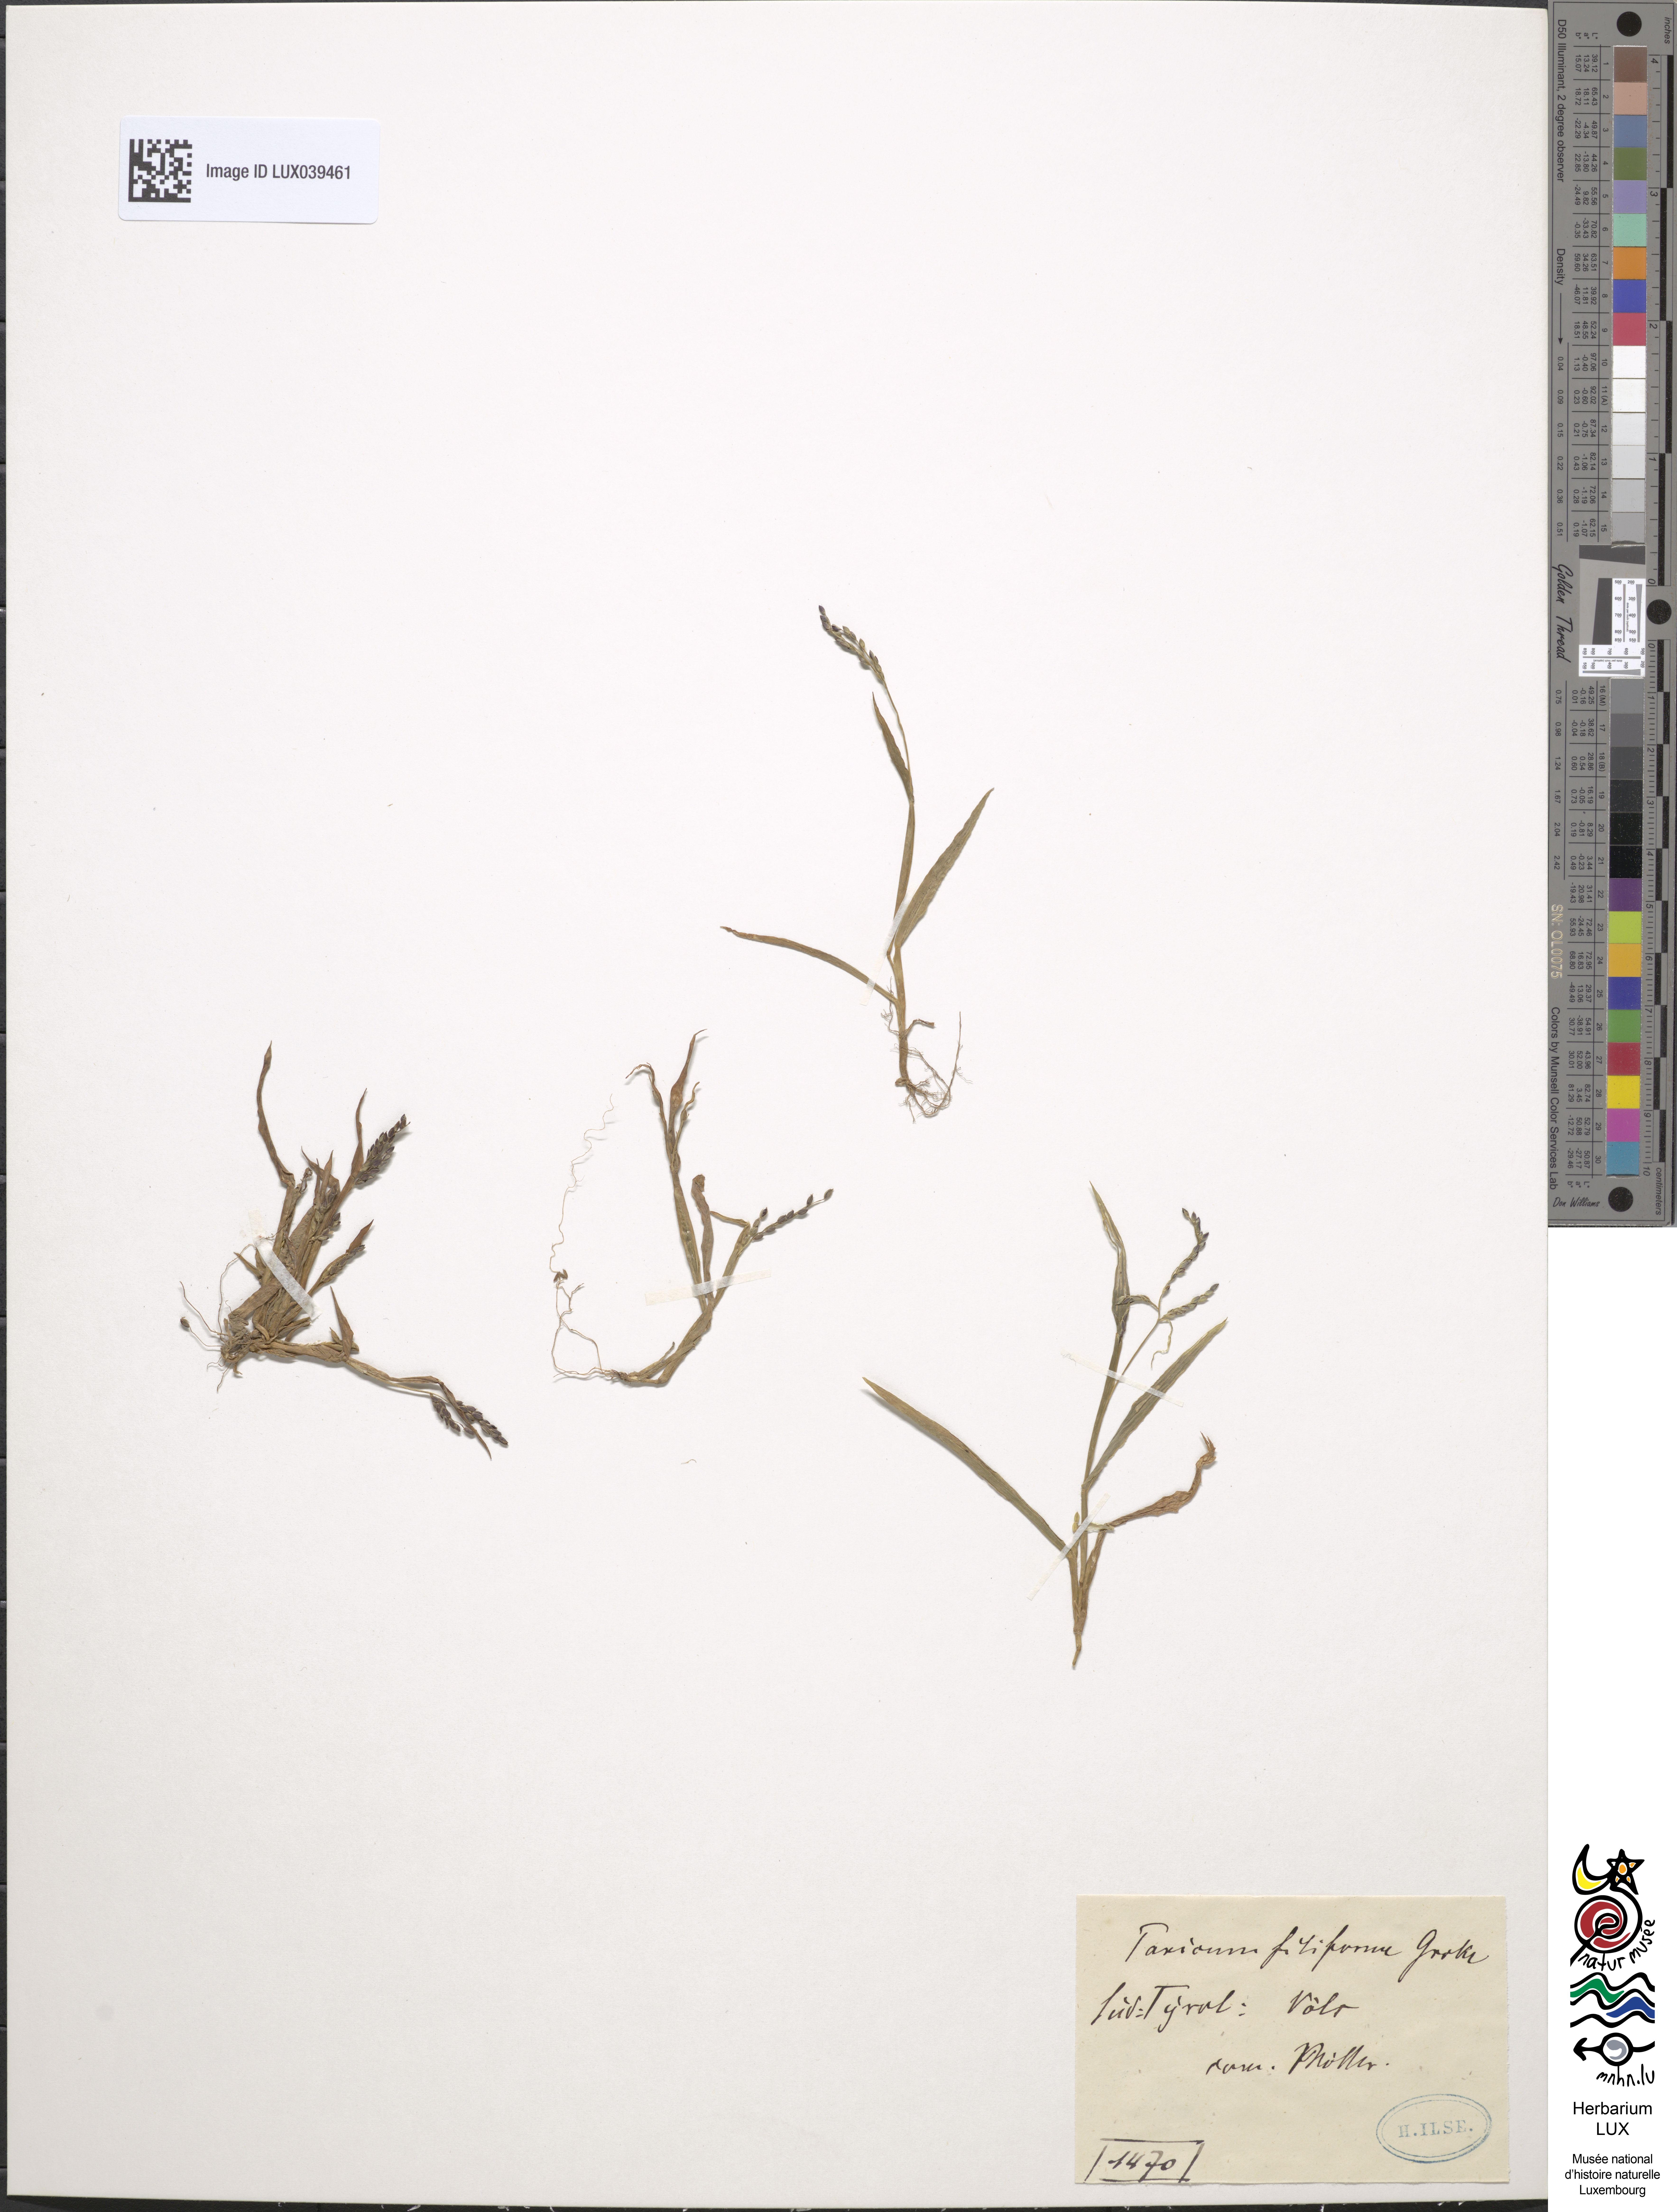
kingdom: Plantae
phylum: Tracheophyta
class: Liliopsida
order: Poales
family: Poaceae
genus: Digitaria
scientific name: Digitaria ischaemum
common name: Smooth crabgrass
